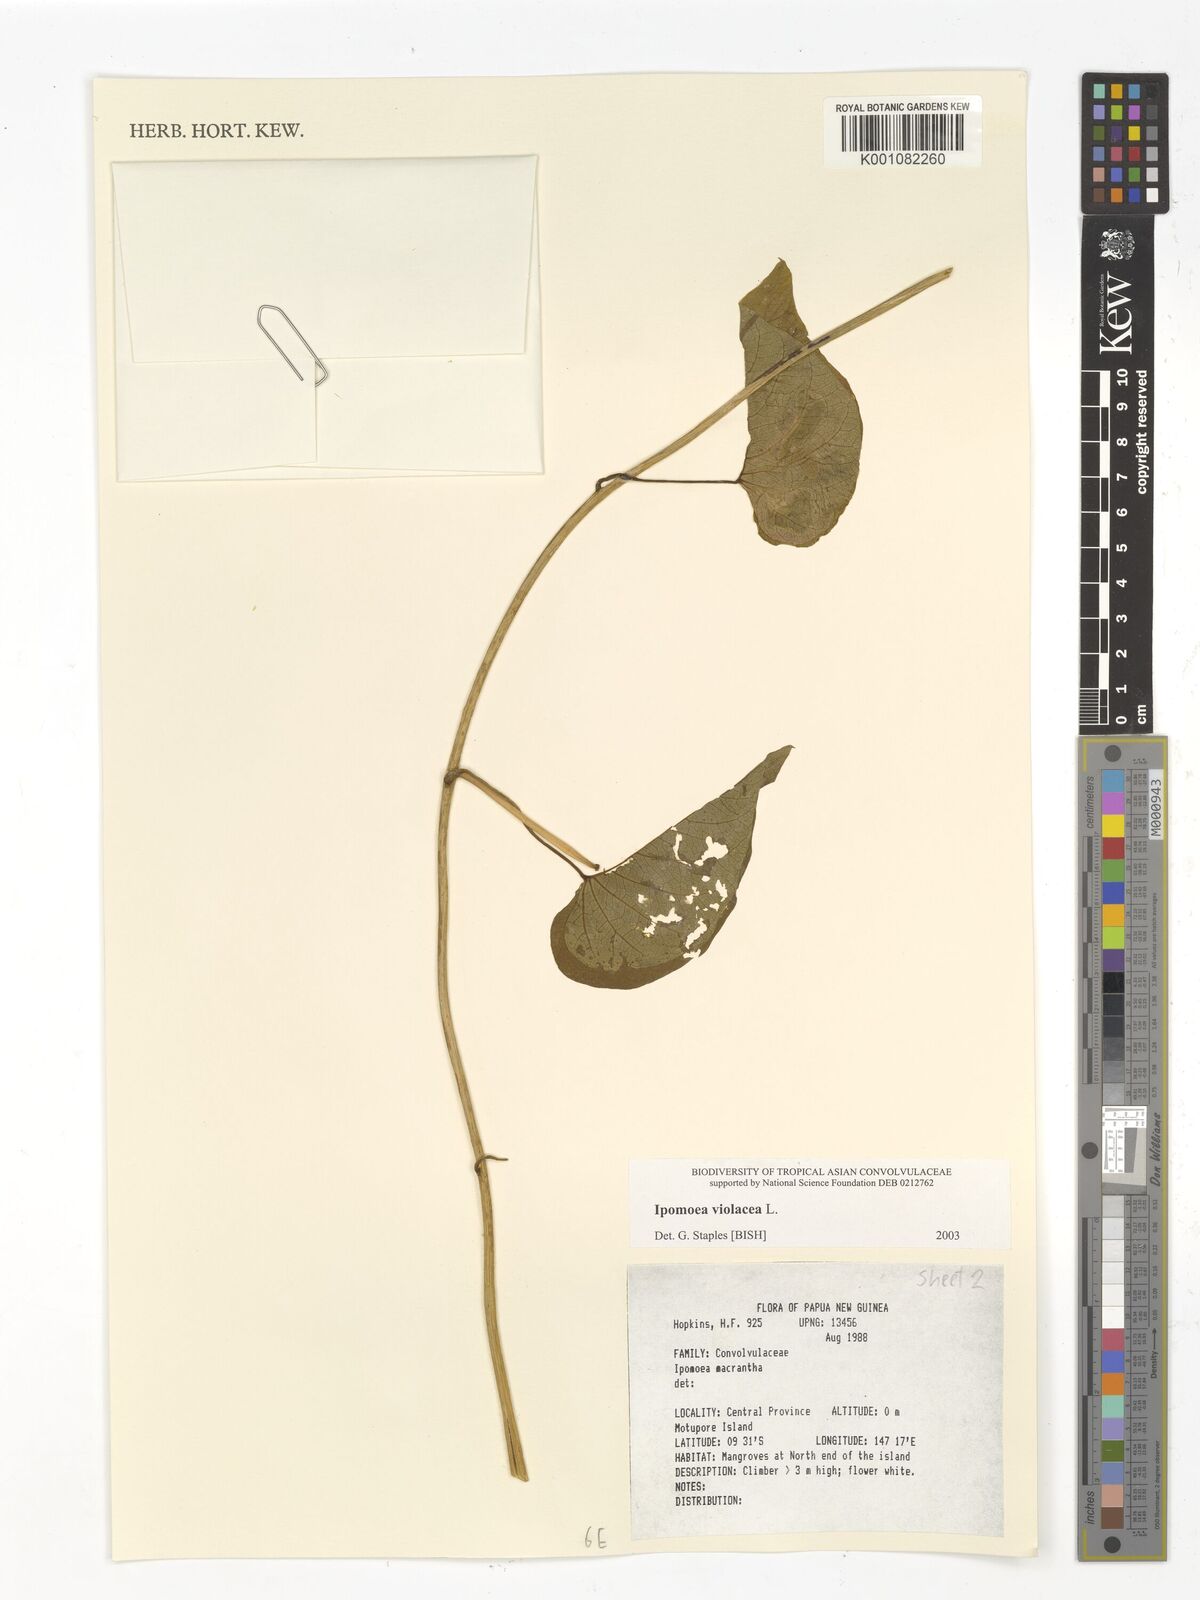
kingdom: Plantae
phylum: Tracheophyta
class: Magnoliopsida
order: Solanales
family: Convolvulaceae
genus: Ipomoea
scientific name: Ipomoea violacea
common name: Beach moonflower
